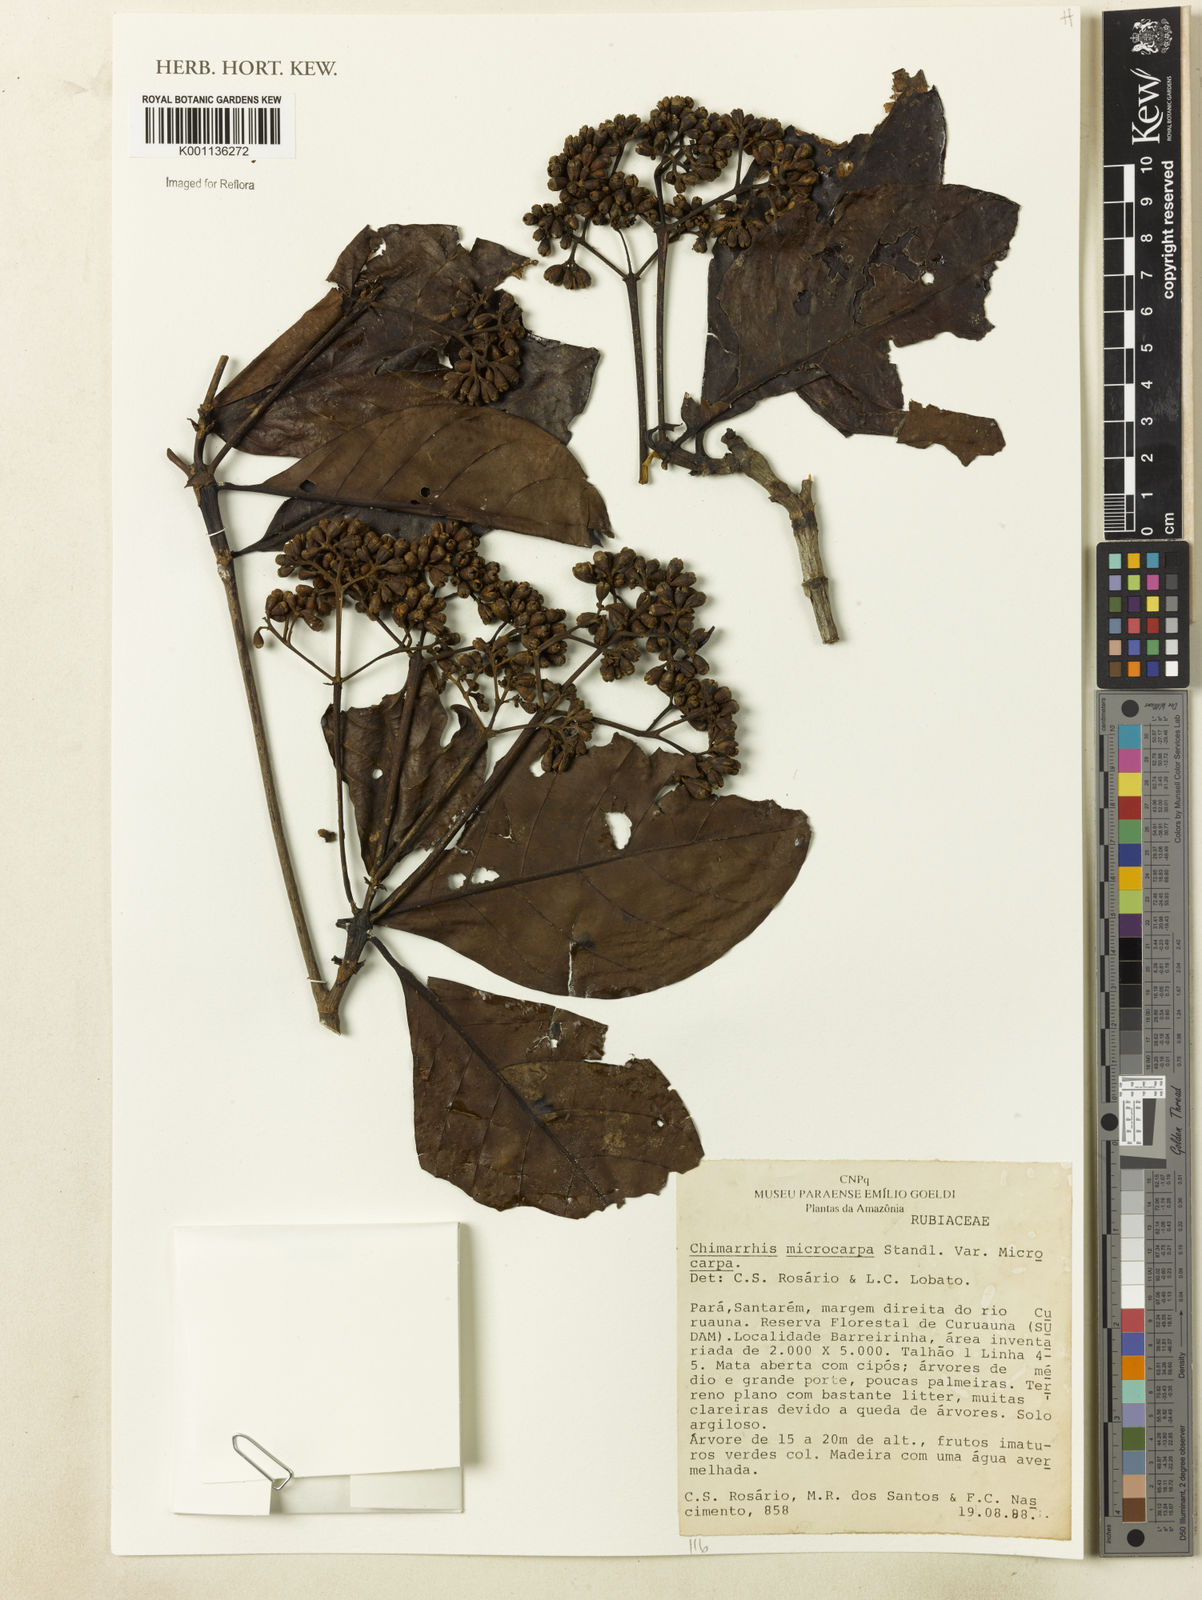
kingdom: Plantae
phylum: Tracheophyta
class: Magnoliopsida
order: Gentianales
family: Rubiaceae
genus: Chimarrhis
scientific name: Chimarrhis microcarpa
